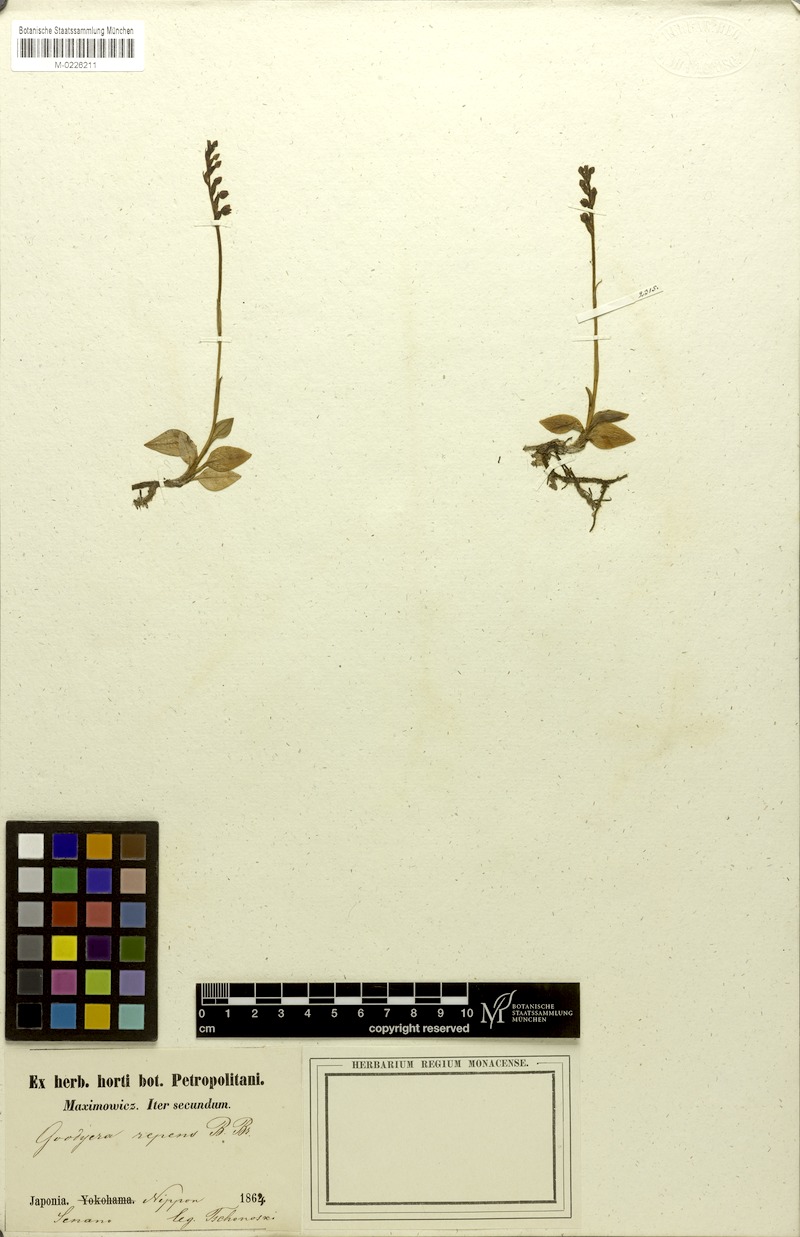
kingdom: Plantae
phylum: Tracheophyta
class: Liliopsida
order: Asparagales
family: Orchidaceae
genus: Goodyera
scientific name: Goodyera repens
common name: Creeping lady's-tresses
